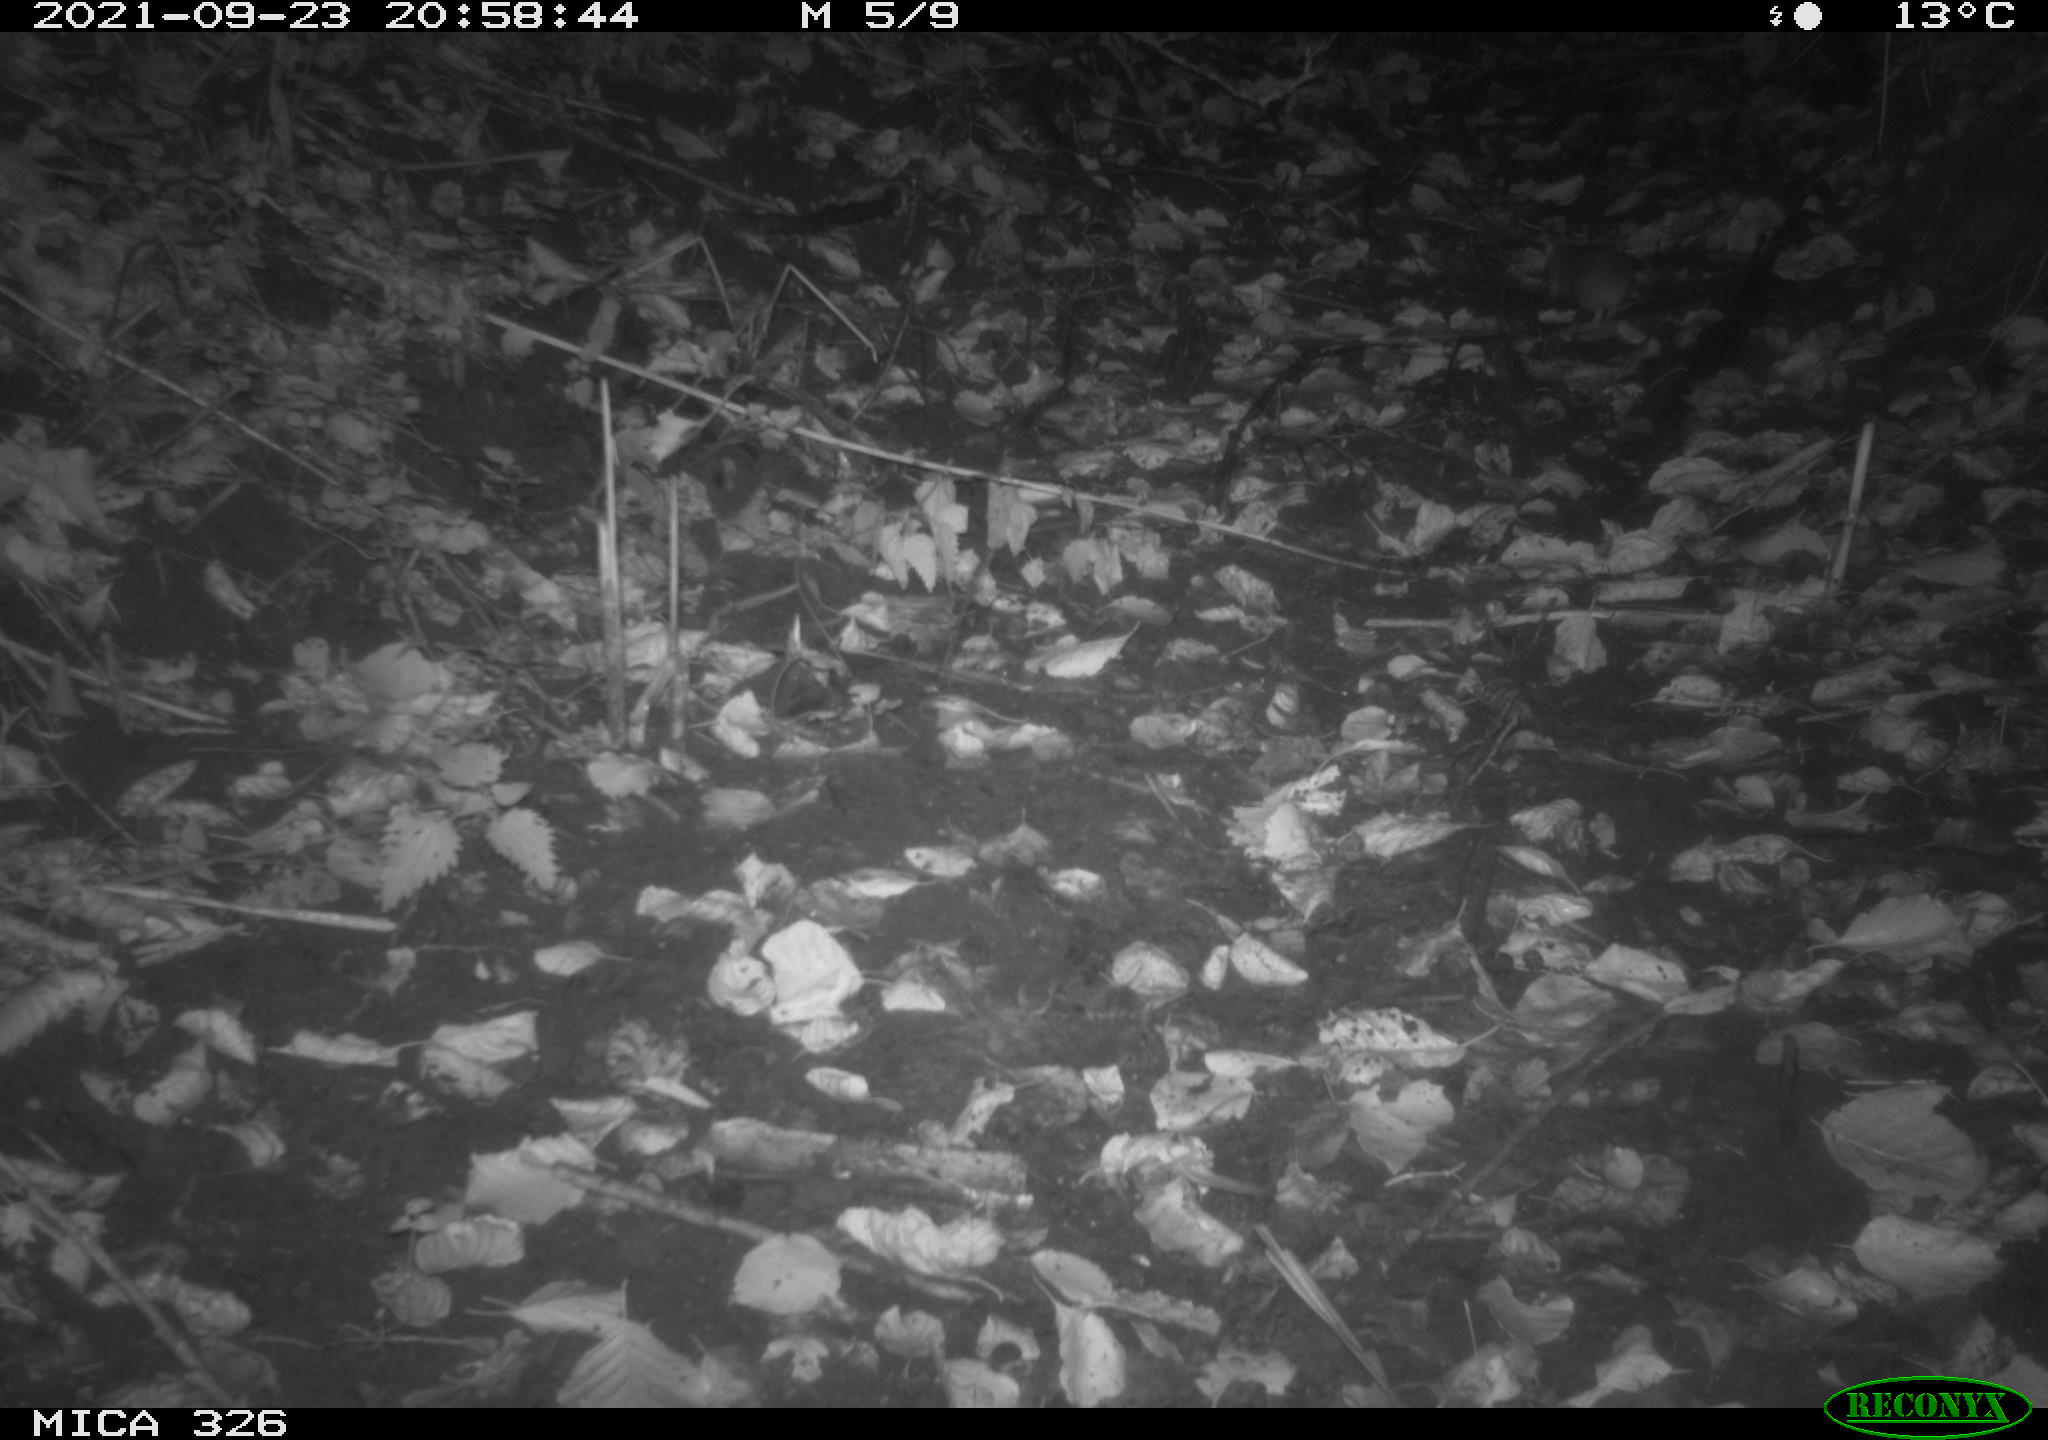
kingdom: Animalia
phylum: Chordata
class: Mammalia
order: Rodentia
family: Muridae
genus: Rattus
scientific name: Rattus norvegicus
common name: Brown rat
